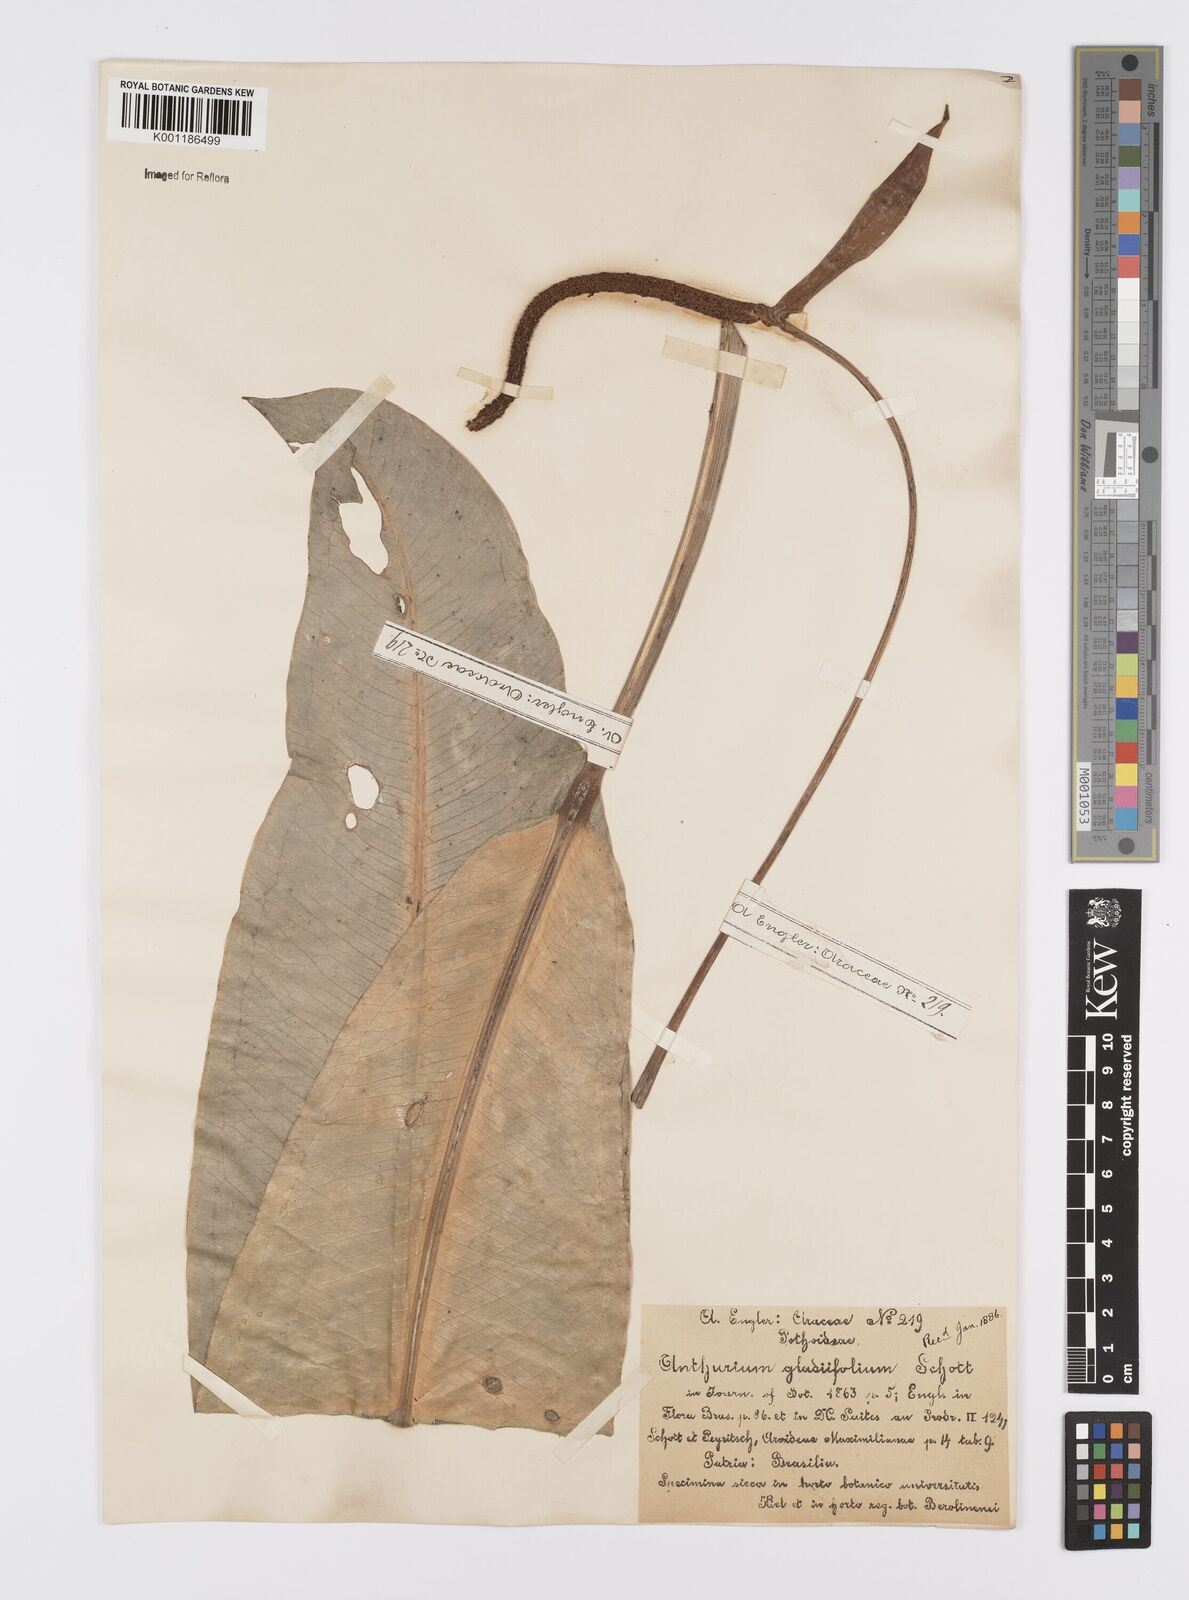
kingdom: Plantae
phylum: Tracheophyta
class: Liliopsida
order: Alismatales
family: Araceae
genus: Anthurium
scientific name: Anthurium gladiifolium
